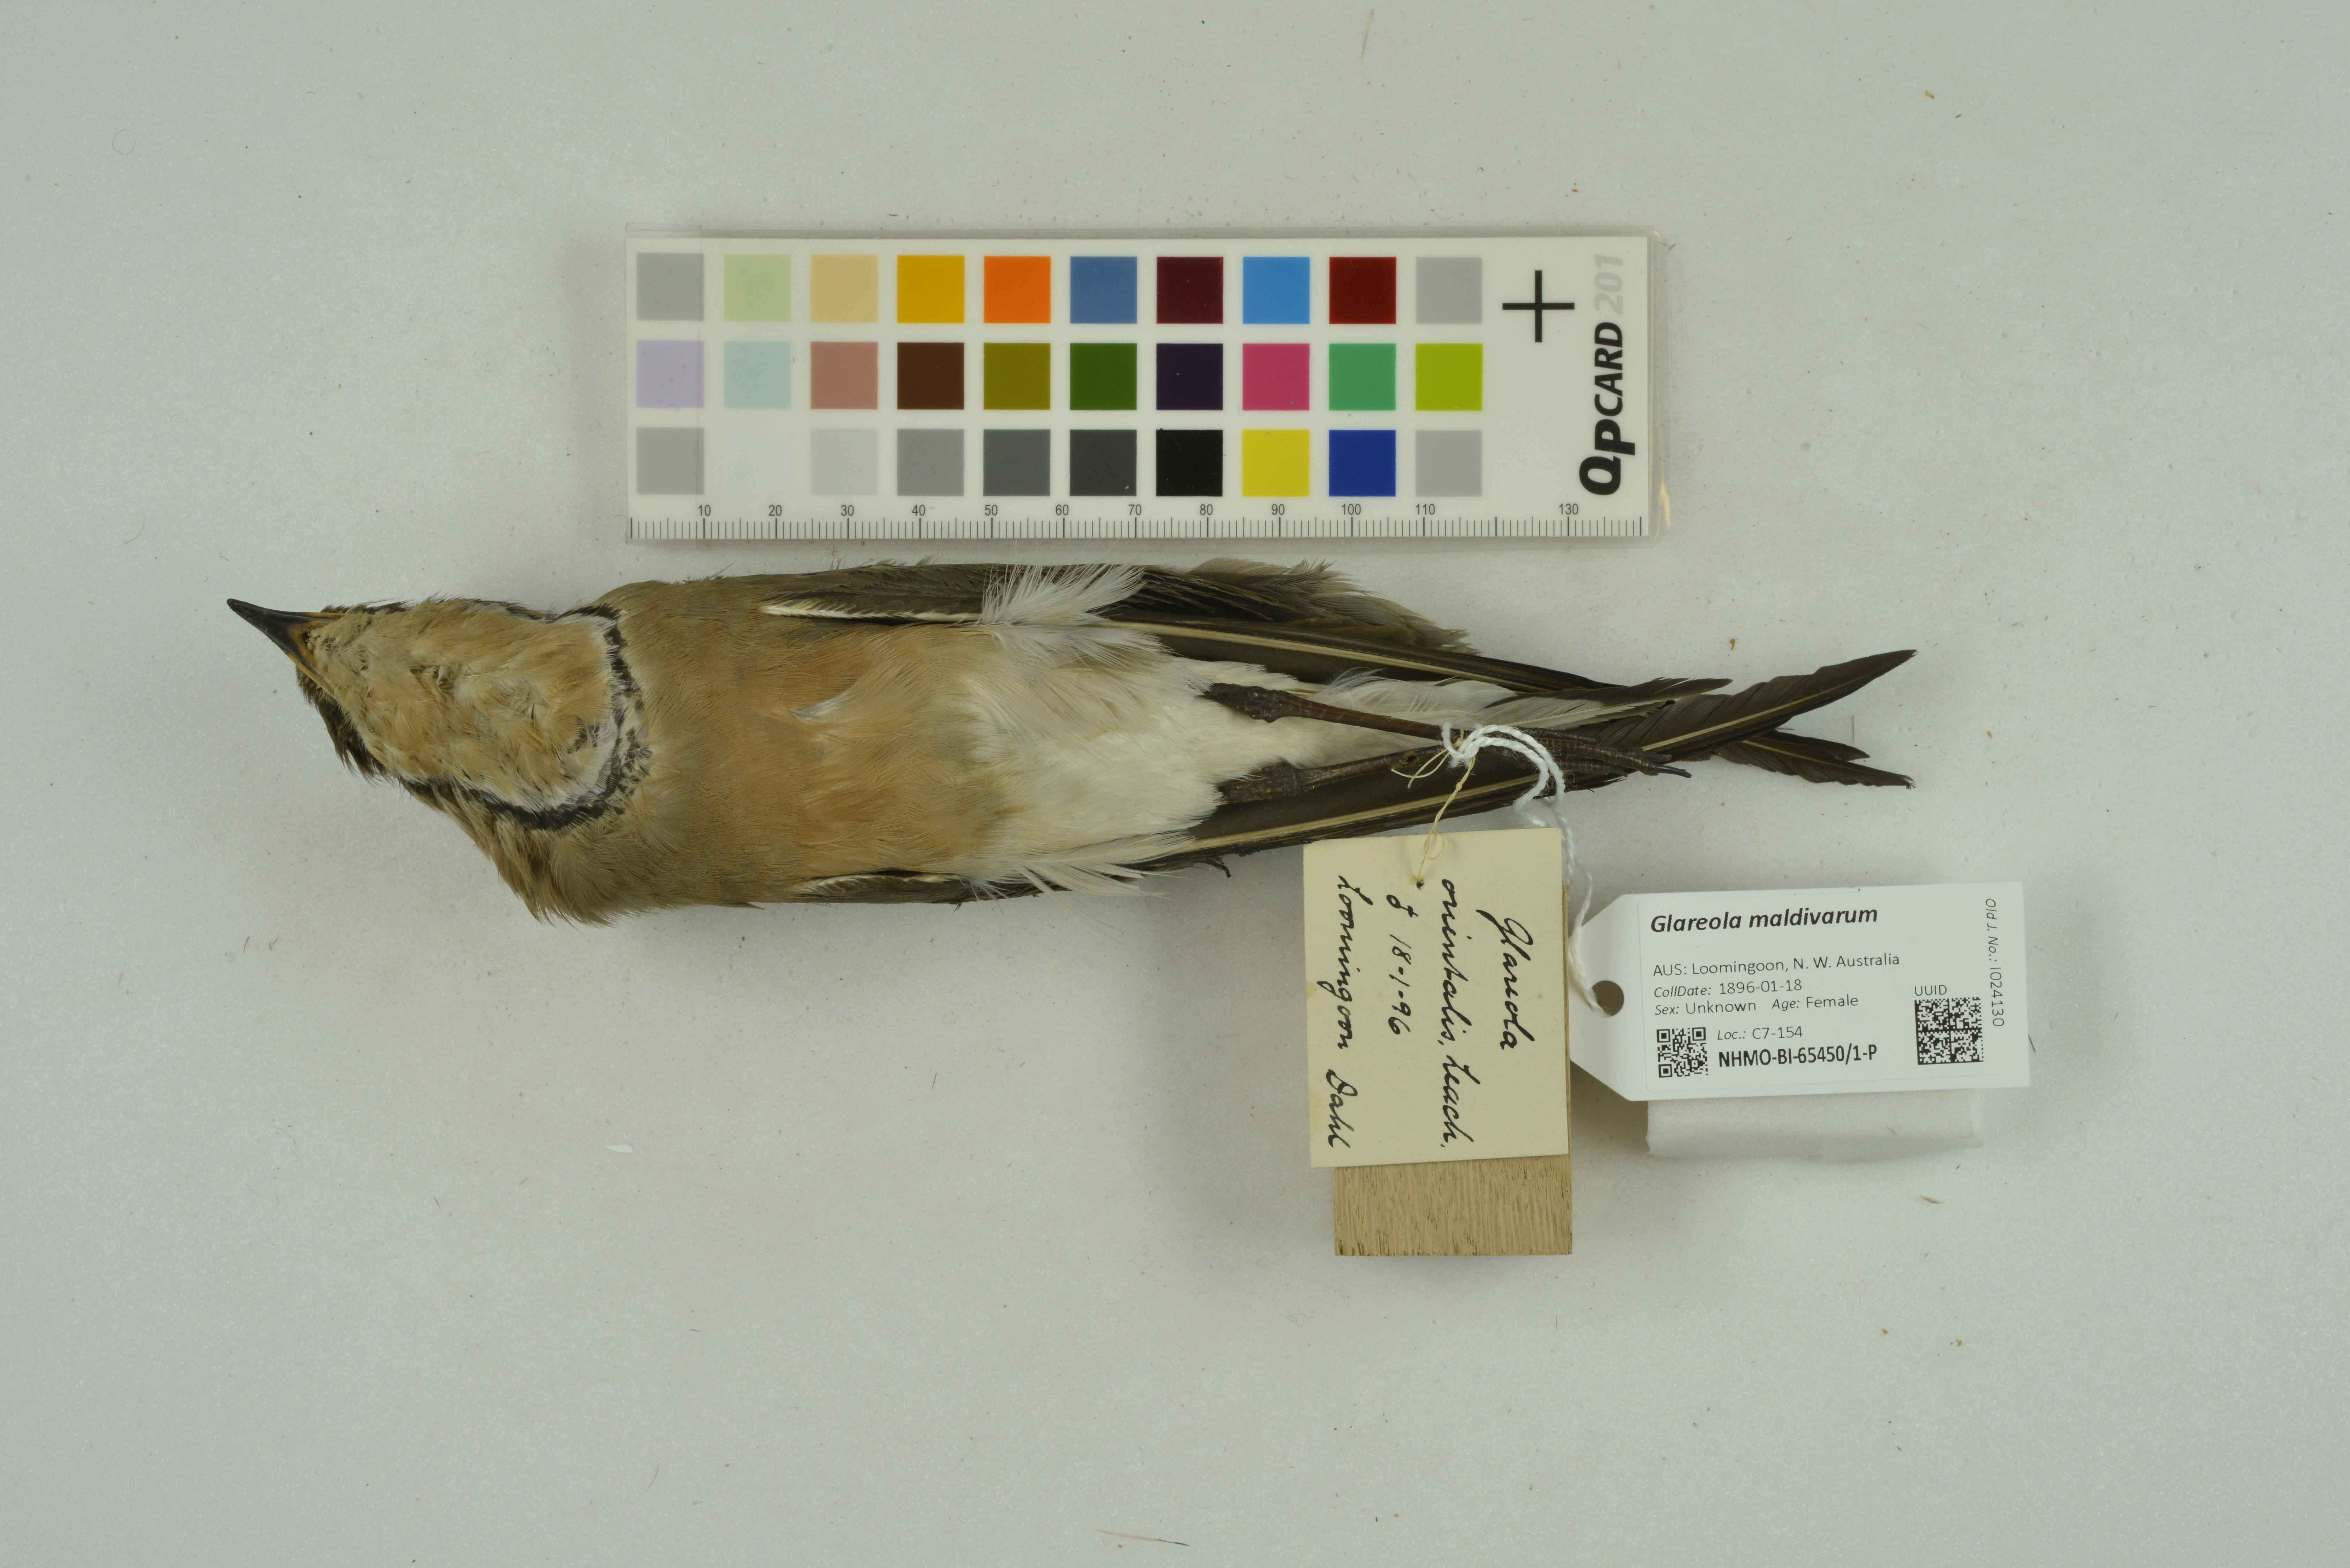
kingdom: Animalia
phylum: Chordata
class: Aves
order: Charadriiformes
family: Glareolidae
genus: Glareola
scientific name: Glareola maldivarum
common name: Oriental pratincole
